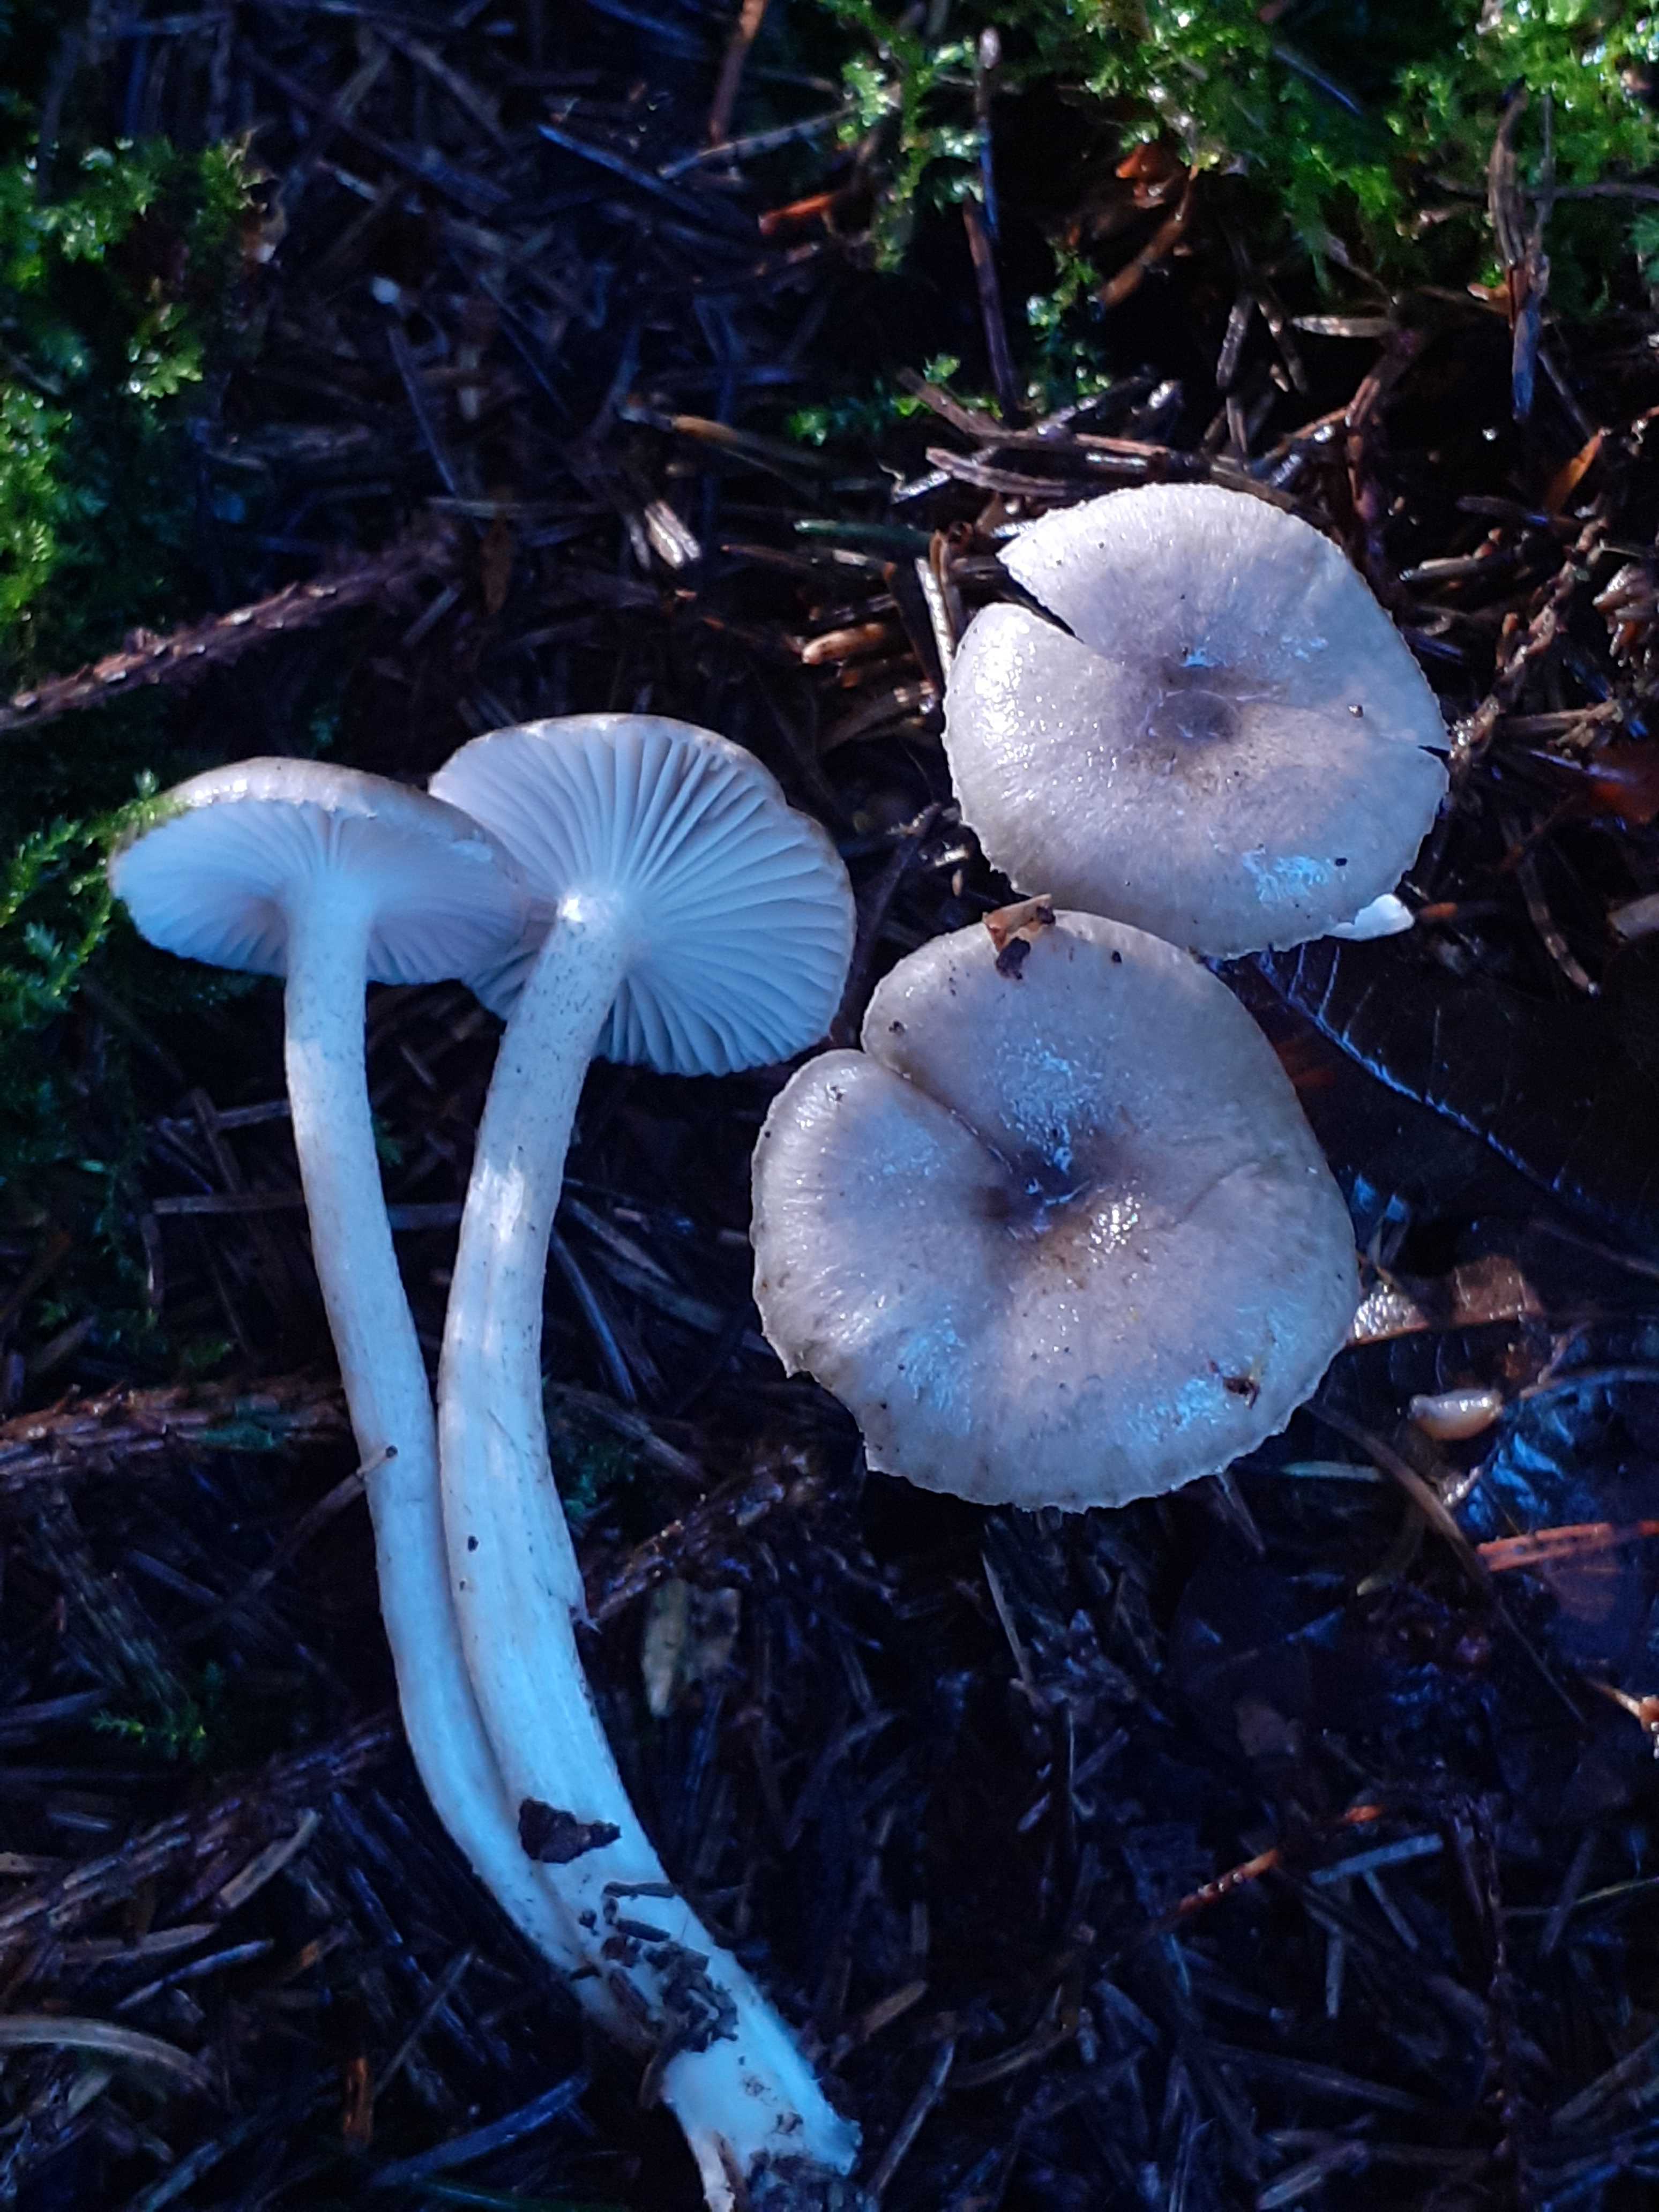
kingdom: Fungi
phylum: Basidiomycota
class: Agaricomycetes
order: Agaricales
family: Hygrophoraceae
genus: Hygrophorus
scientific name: Hygrophorus pustulatus
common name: mørkprikket sneglehat
